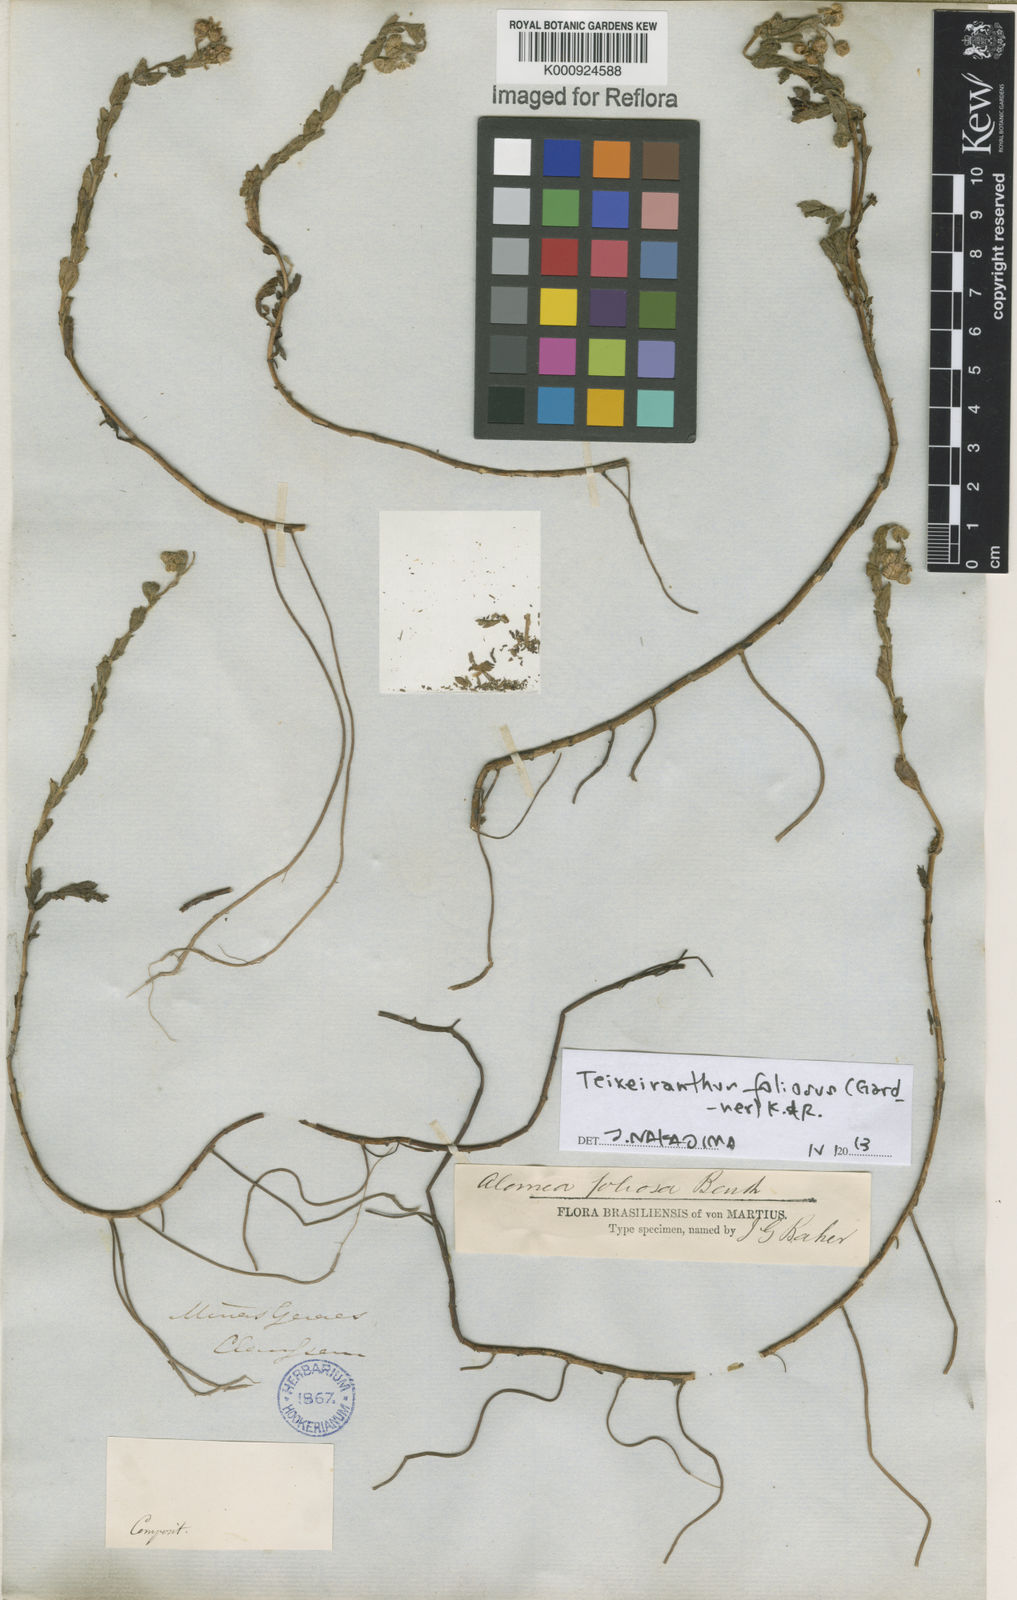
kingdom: Plantae
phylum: Tracheophyta
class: Magnoliopsida
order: Asterales
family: Asteraceae
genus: Teixeiranthus
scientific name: Teixeiranthus foliosus
